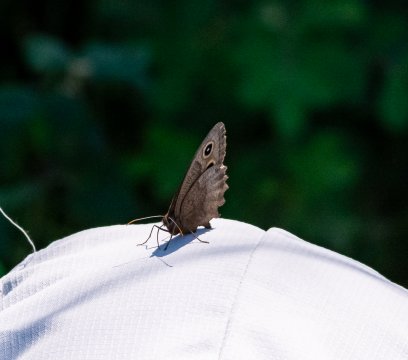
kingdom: Animalia
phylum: Arthropoda
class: Insecta
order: Lepidoptera
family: Nymphalidae
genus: Cercyonis
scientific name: Cercyonis pegala
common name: Common Wood-Nymph
